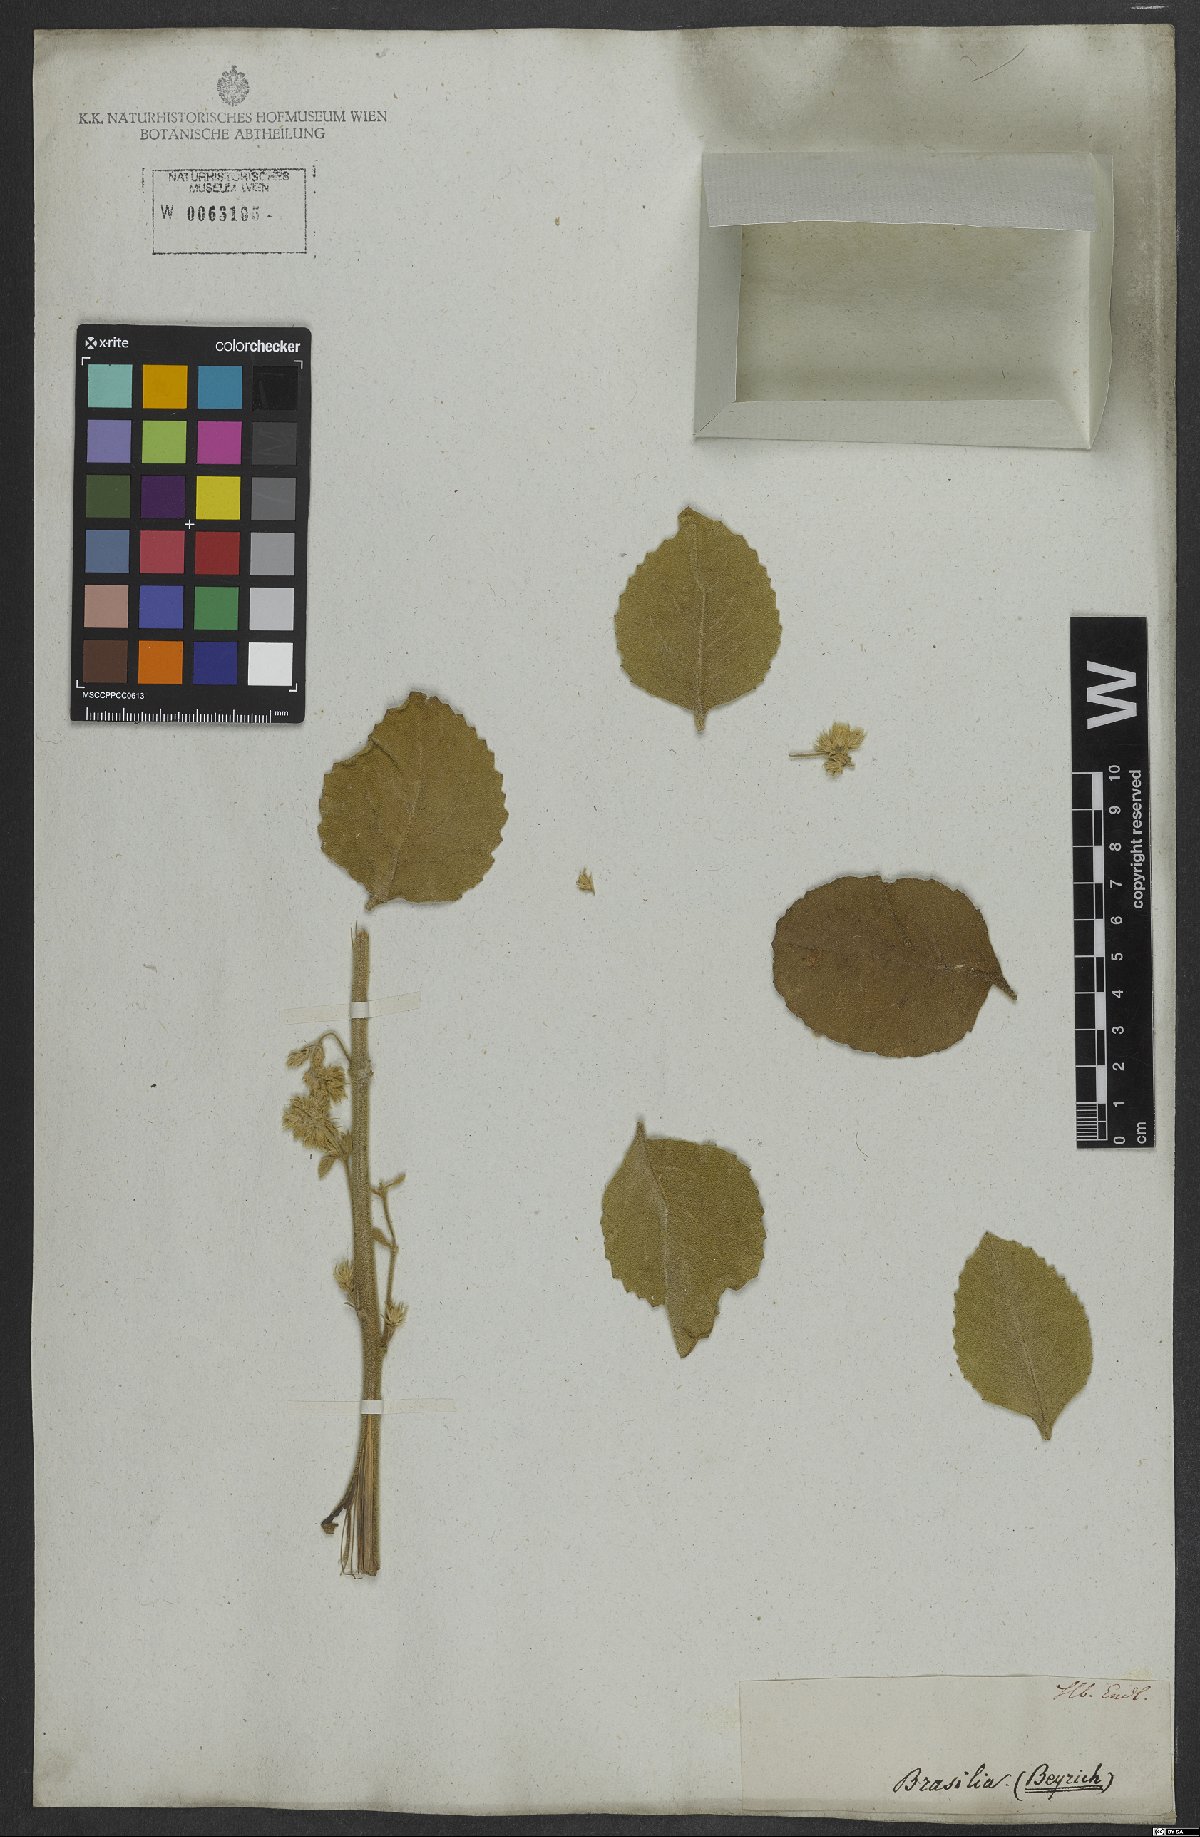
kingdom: Plantae
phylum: Tracheophyta
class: Magnoliopsida
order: Asterales
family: Asteraceae
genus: Stomatanthes
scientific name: Stomatanthes dictyophyllus
